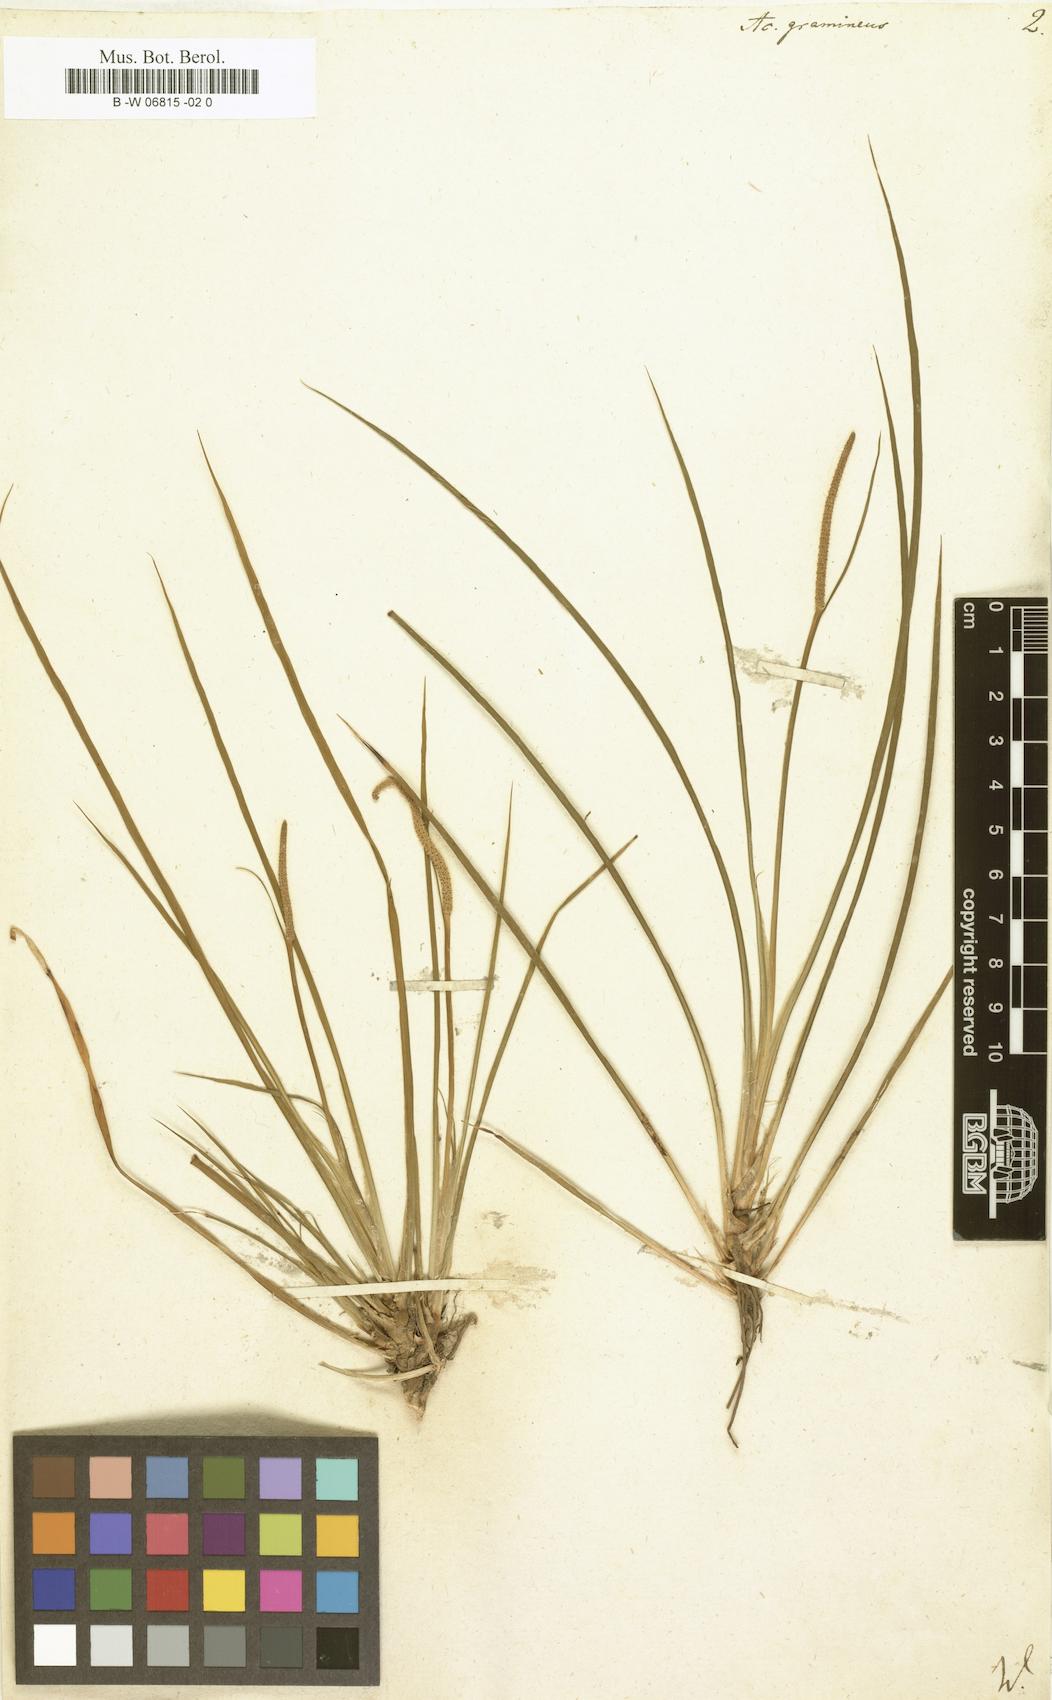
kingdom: Plantae
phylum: Tracheophyta
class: Liliopsida
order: Acorales
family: Acoraceae
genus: Acorus
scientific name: Acorus gramineus
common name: Slender sweet-flag
